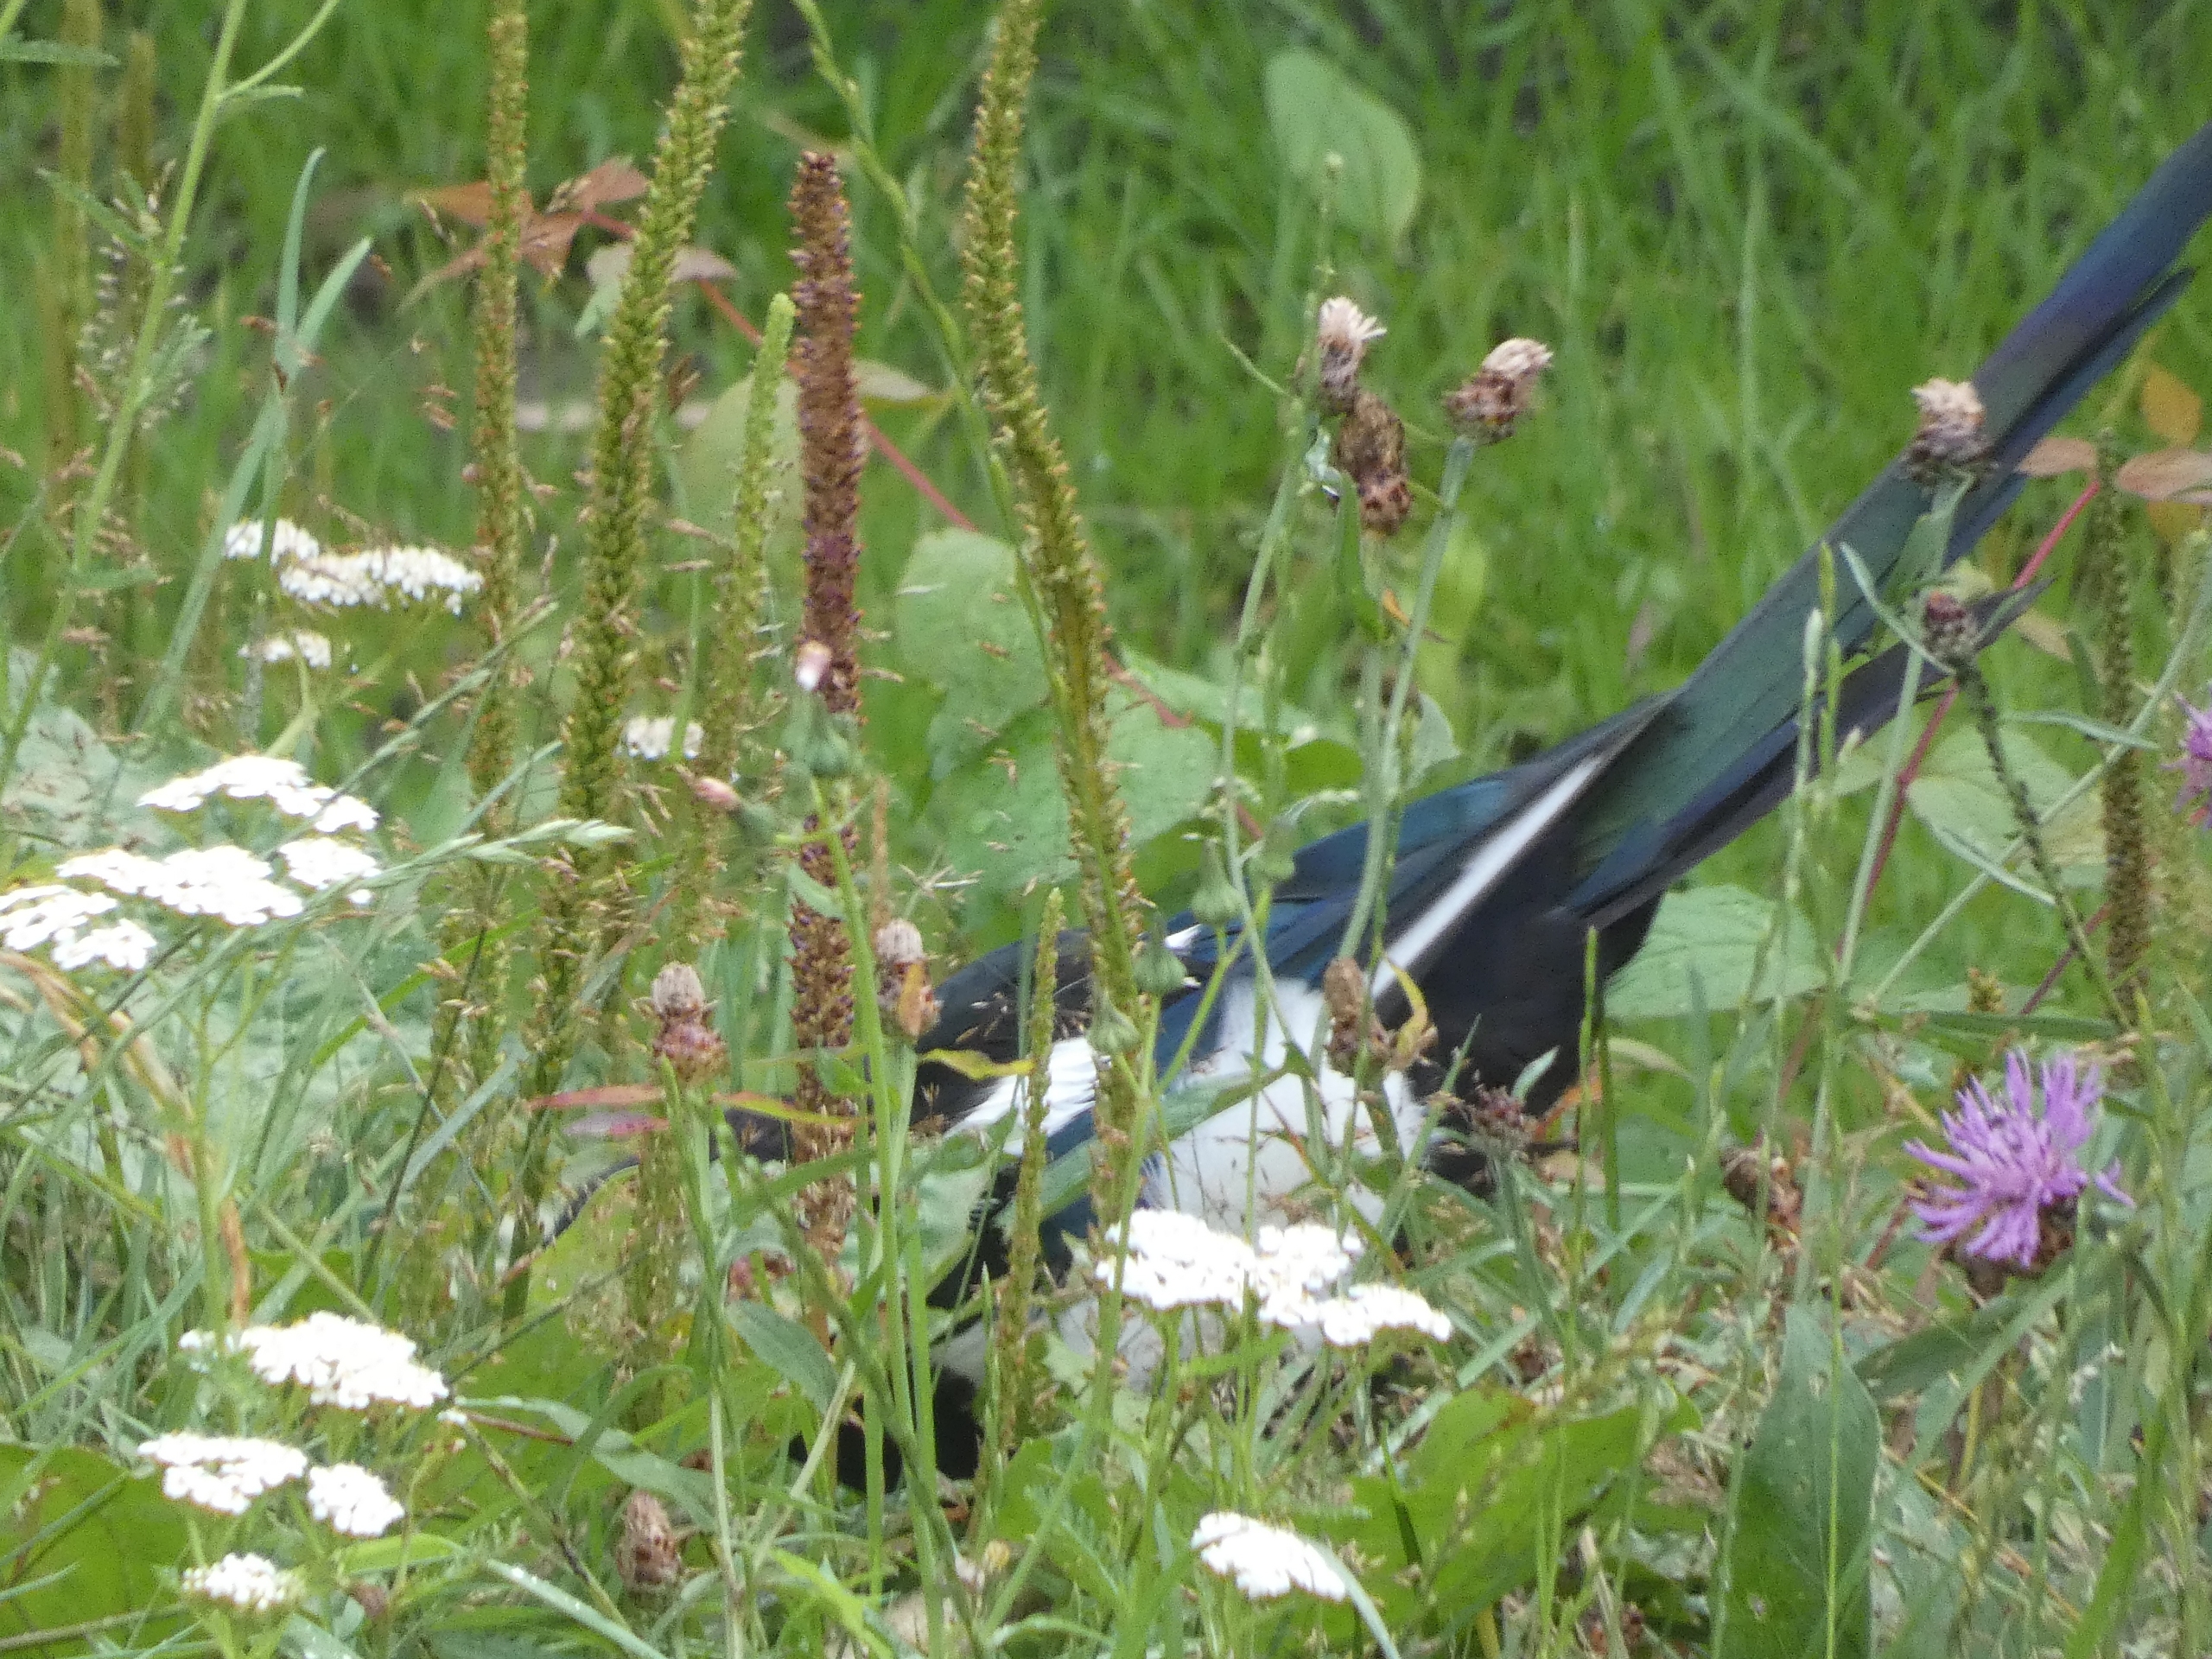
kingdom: Animalia
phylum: Chordata
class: Aves
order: Passeriformes
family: Corvidae
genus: Pica
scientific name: Pica pica
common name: Husskade
